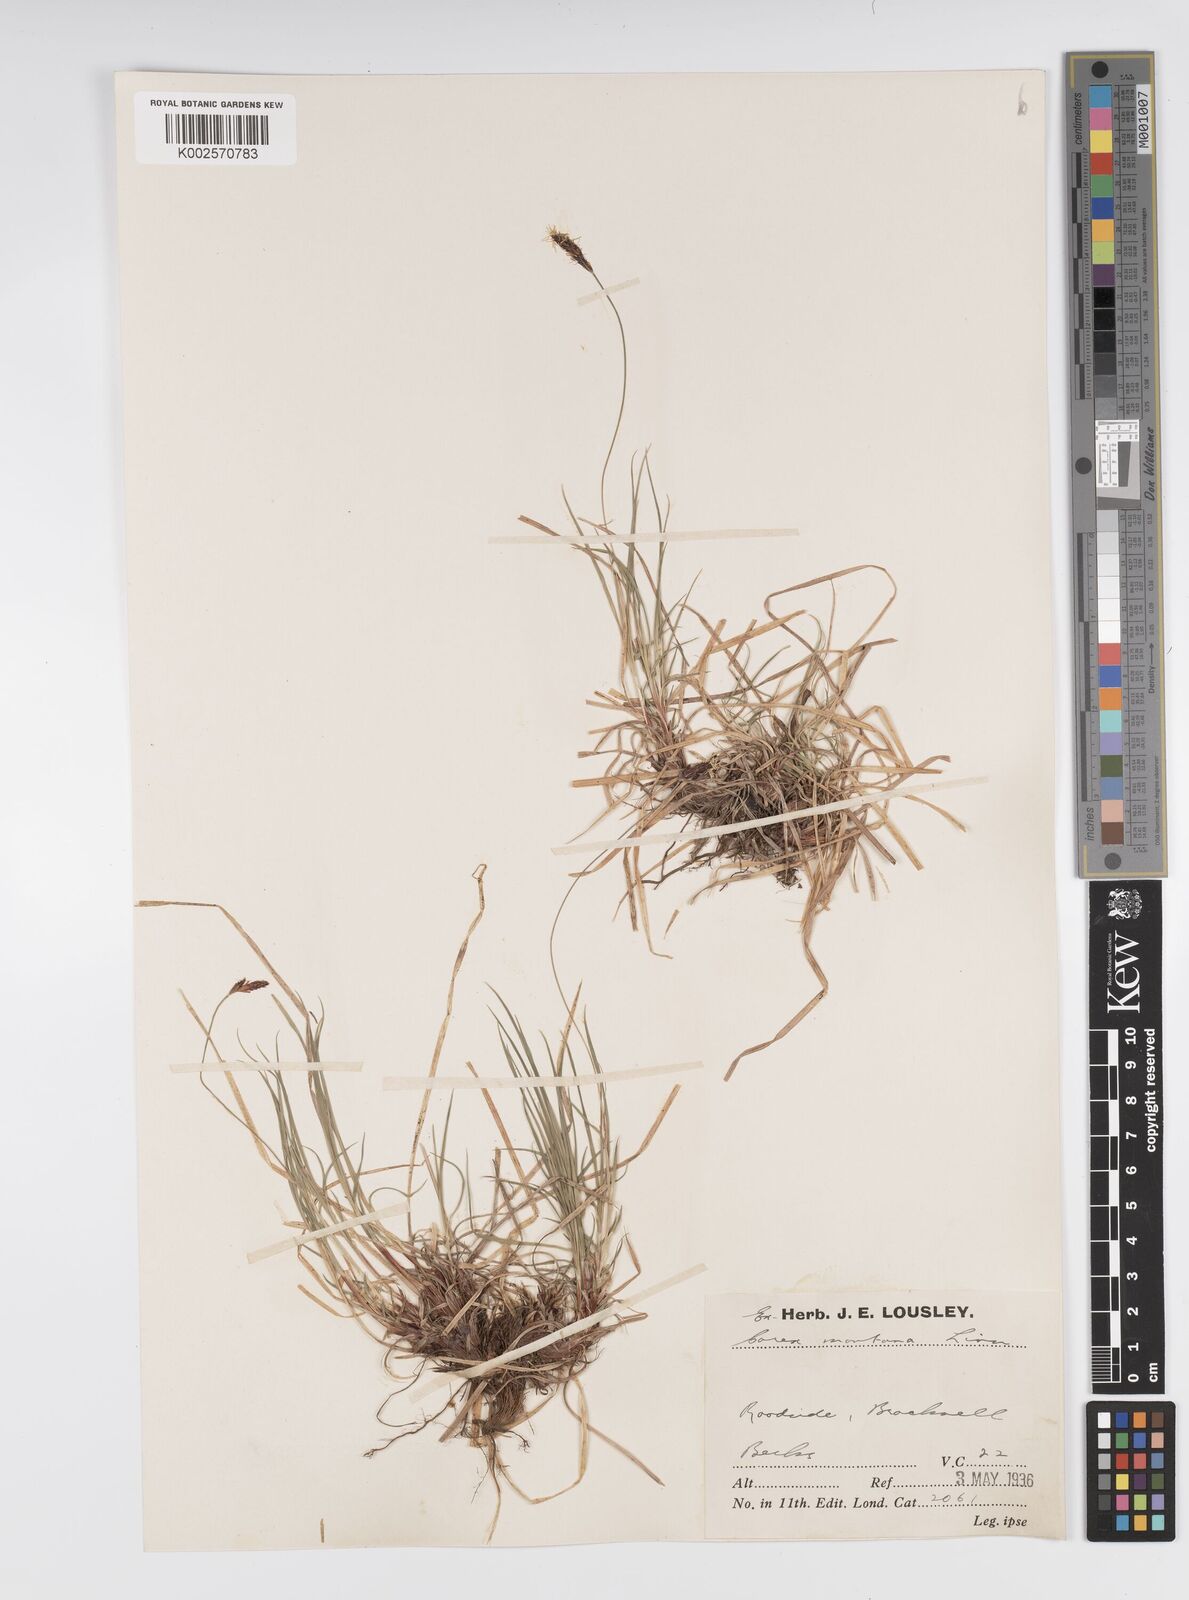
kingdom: Plantae
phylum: Tracheophyta
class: Liliopsida
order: Poales
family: Cyperaceae
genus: Carex
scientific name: Carex montana
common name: Soft-leaved sedge
